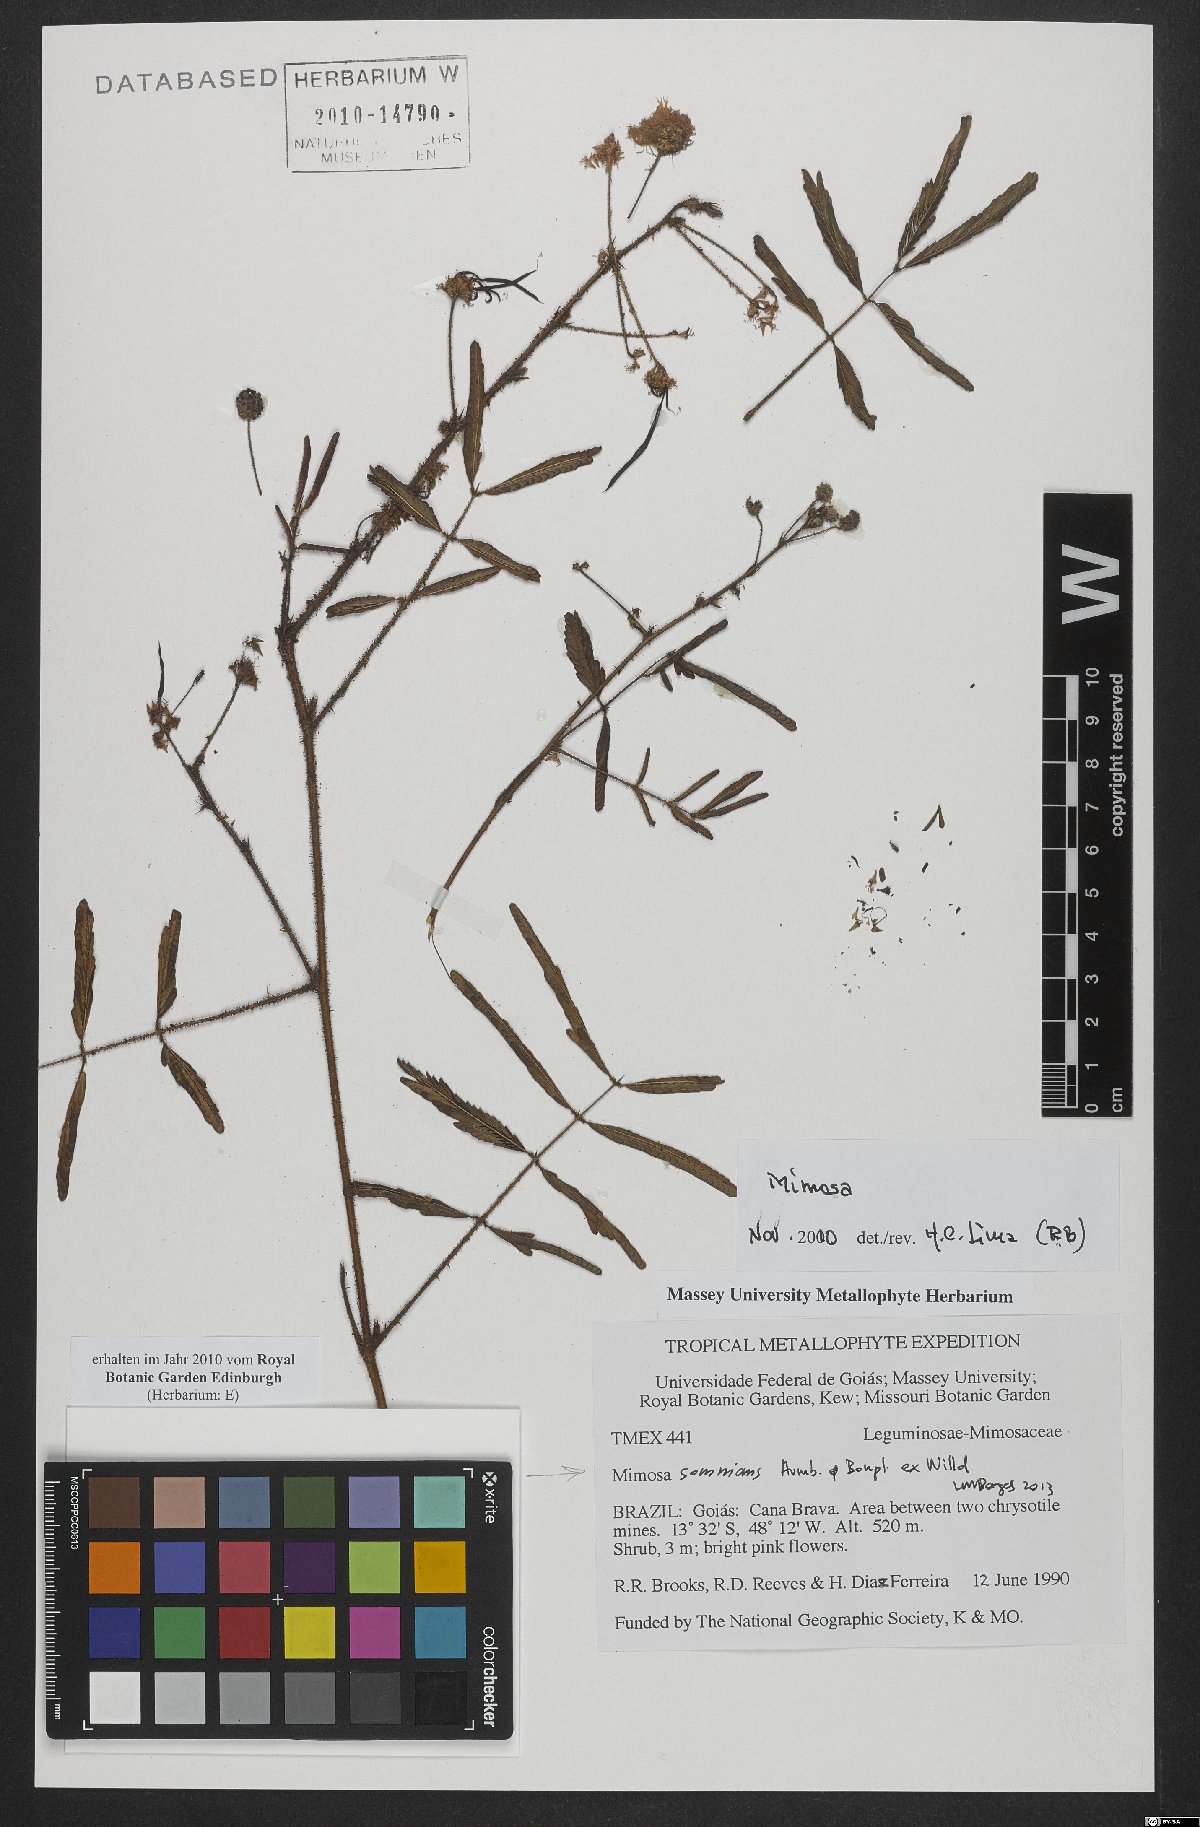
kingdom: Plantae
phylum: Tracheophyta
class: Magnoliopsida
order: Fabales
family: Fabaceae
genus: Mimosa
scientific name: Mimosa somnians
